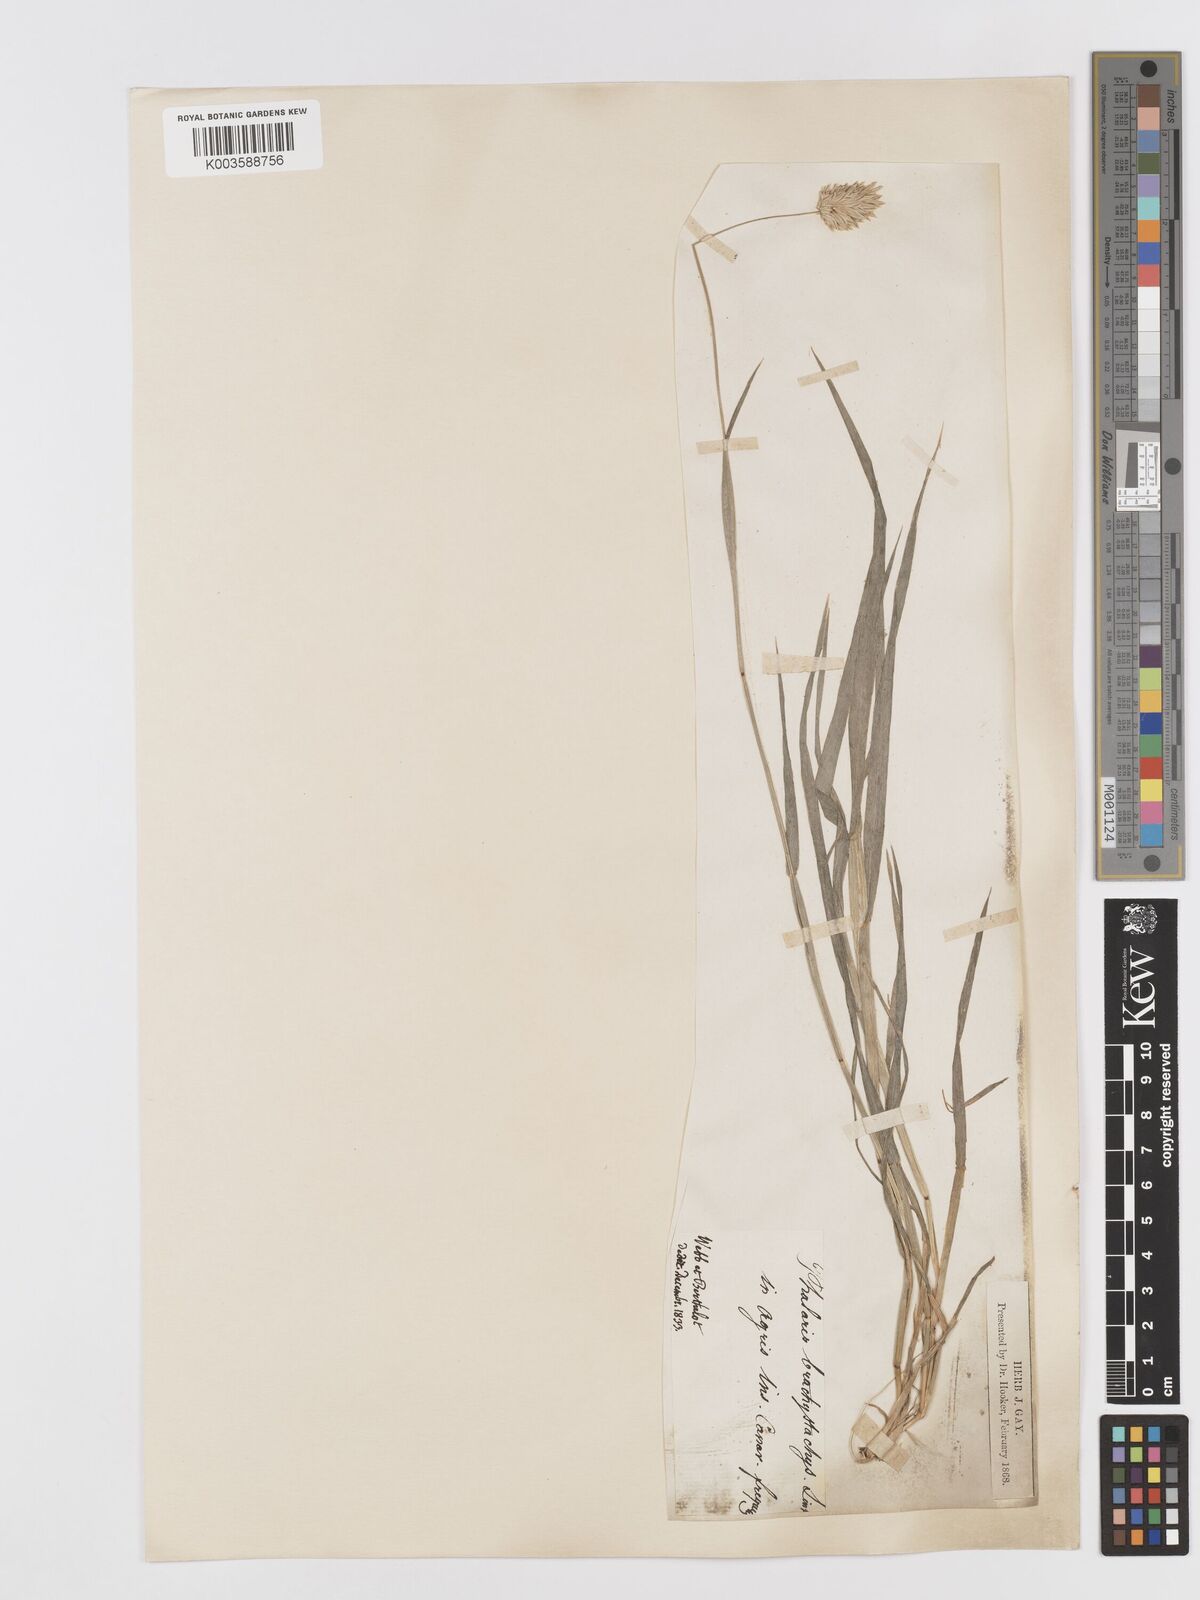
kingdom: Plantae
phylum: Tracheophyta
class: Liliopsida
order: Poales
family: Poaceae
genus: Phalaris
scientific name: Phalaris brachystachys
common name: Confused canary-grass
